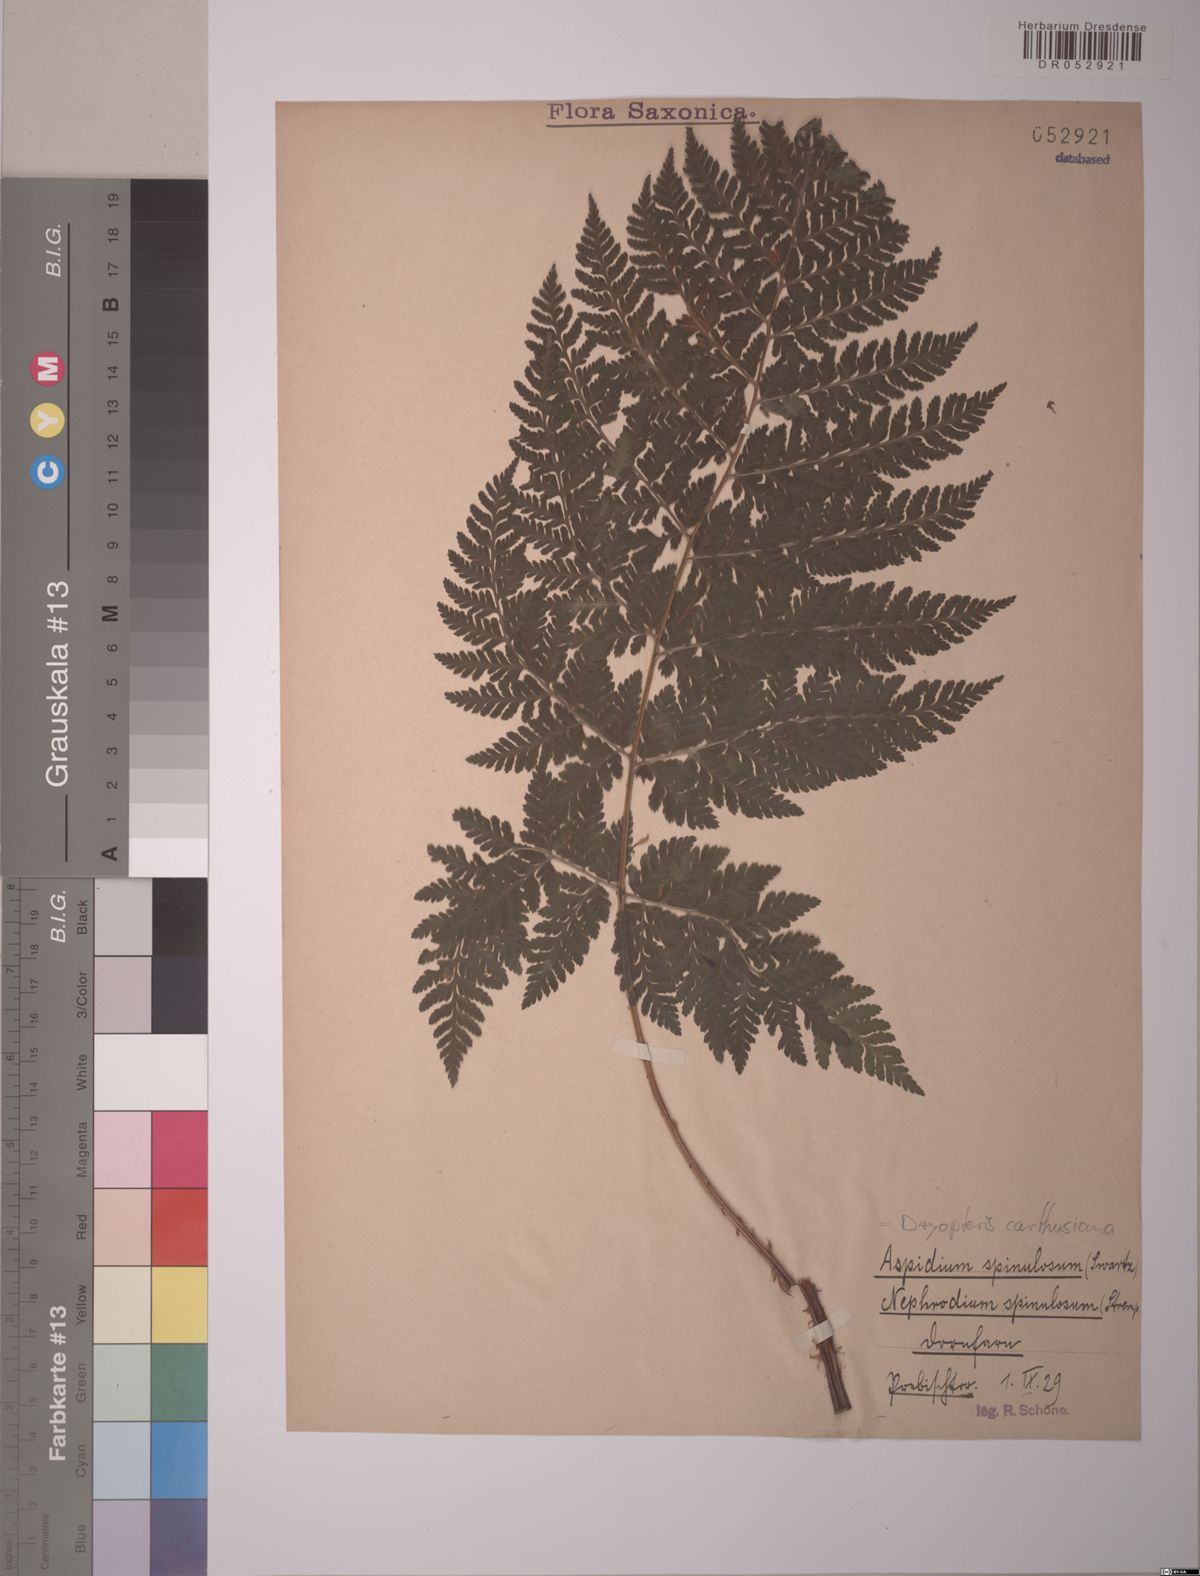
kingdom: Plantae
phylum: Tracheophyta
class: Polypodiopsida
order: Polypodiales
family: Dryopteridaceae
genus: Dryopteris
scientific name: Dryopteris carthusiana
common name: Narrow buckler-fern
